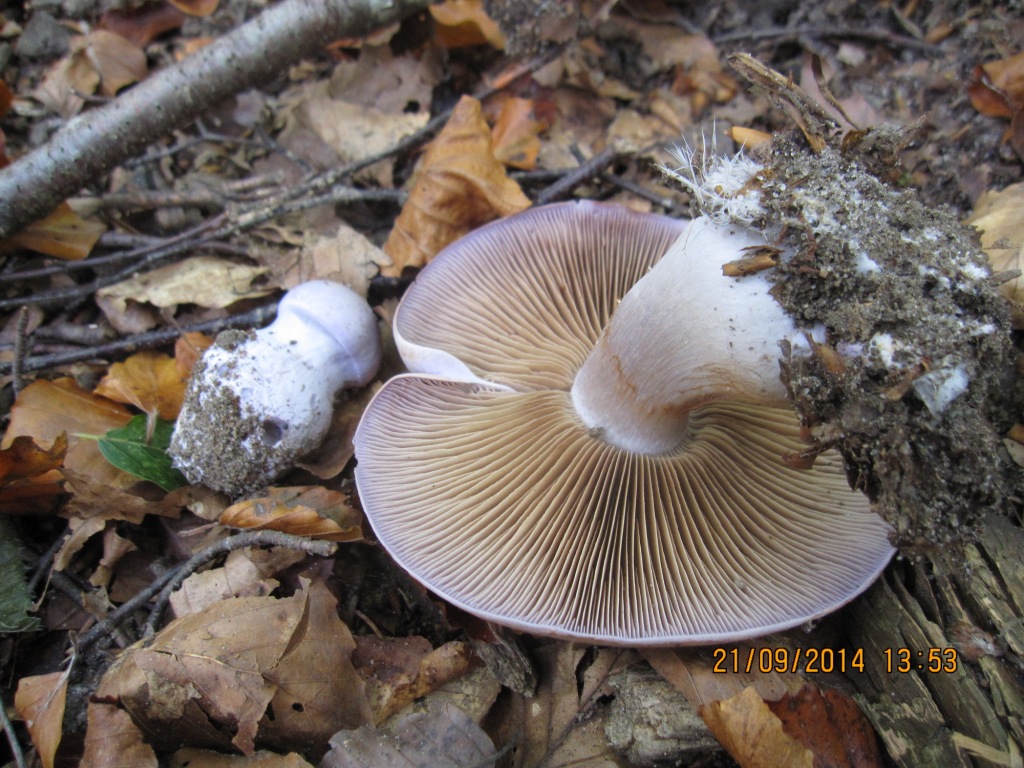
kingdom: Fungi
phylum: Basidiomycota
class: Agaricomycetes
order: Agaricales
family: Cortinariaceae
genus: Cortinarius
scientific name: Cortinarius largus
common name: violetrandet slørhat
